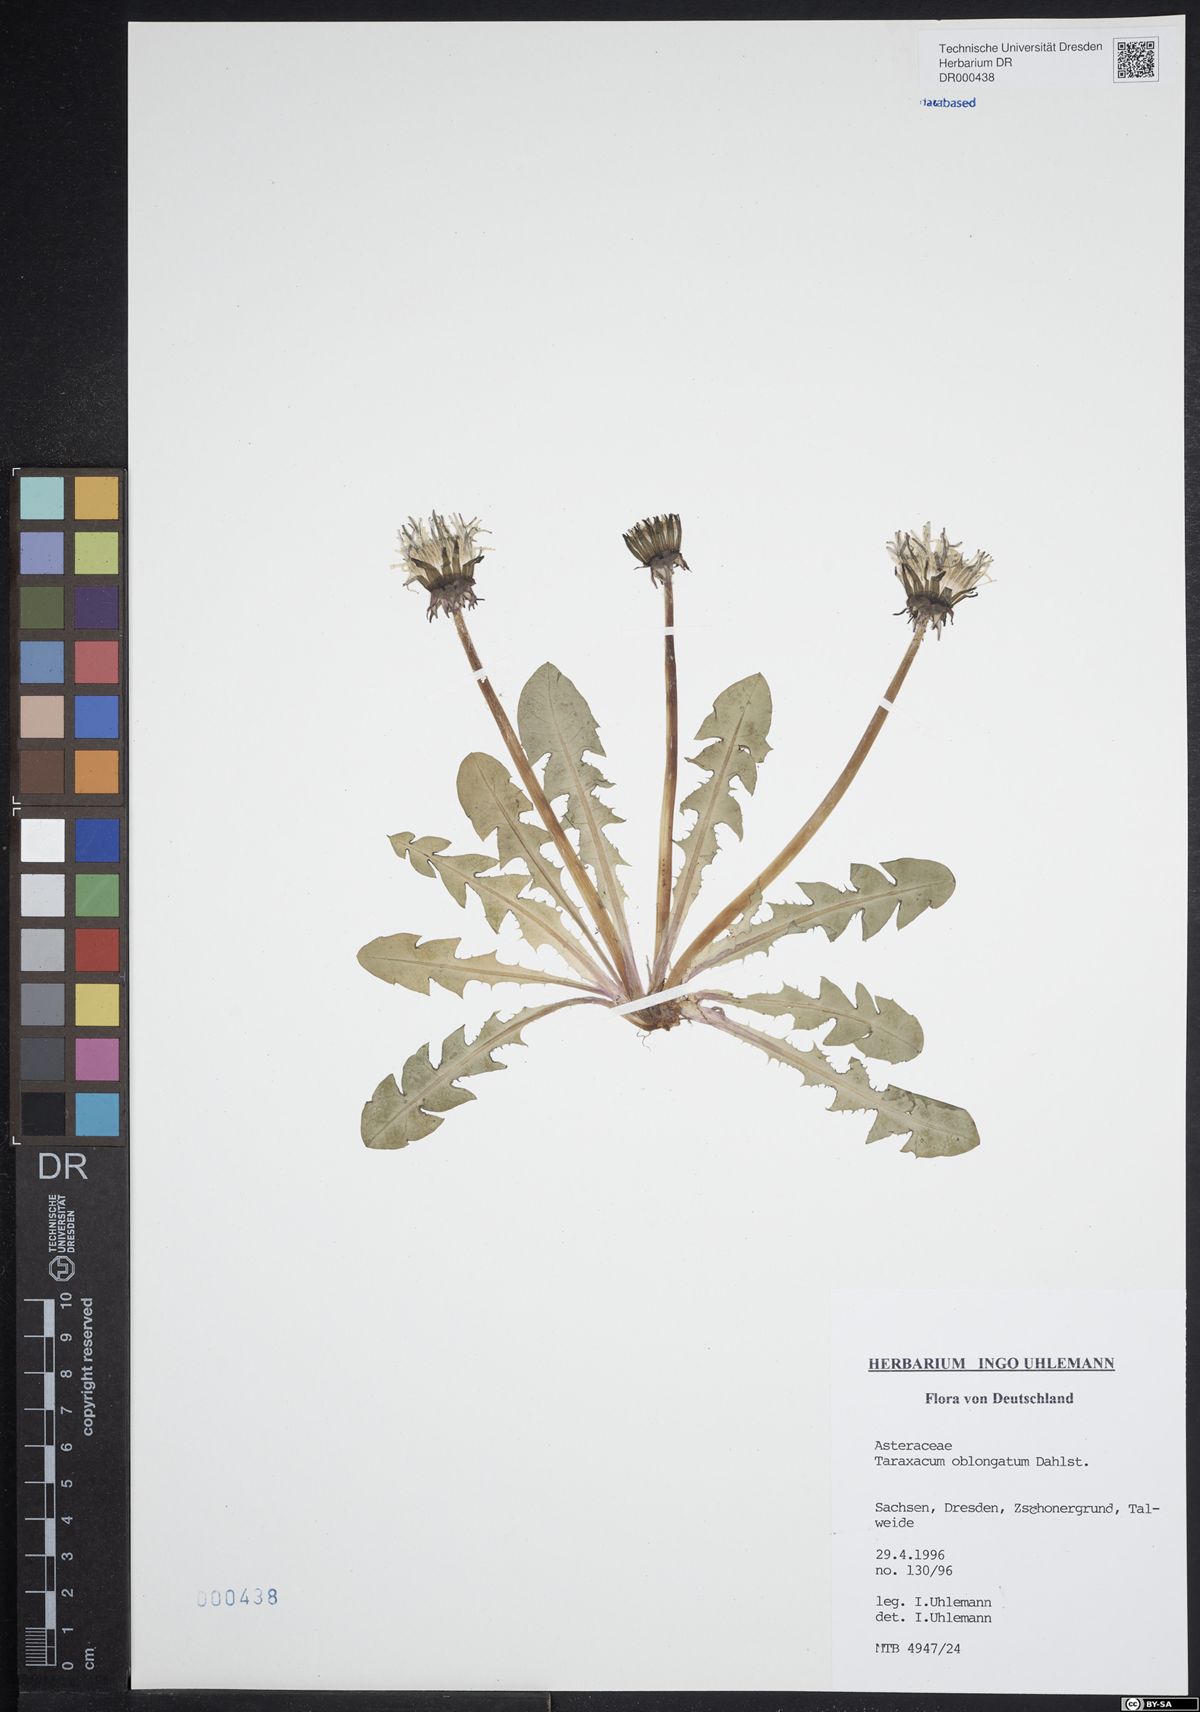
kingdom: Plantae
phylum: Tracheophyta
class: Magnoliopsida
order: Asterales
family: Asteraceae
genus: Taraxacum
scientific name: Taraxacum oblongatum
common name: Oblong-leaved dandelion
